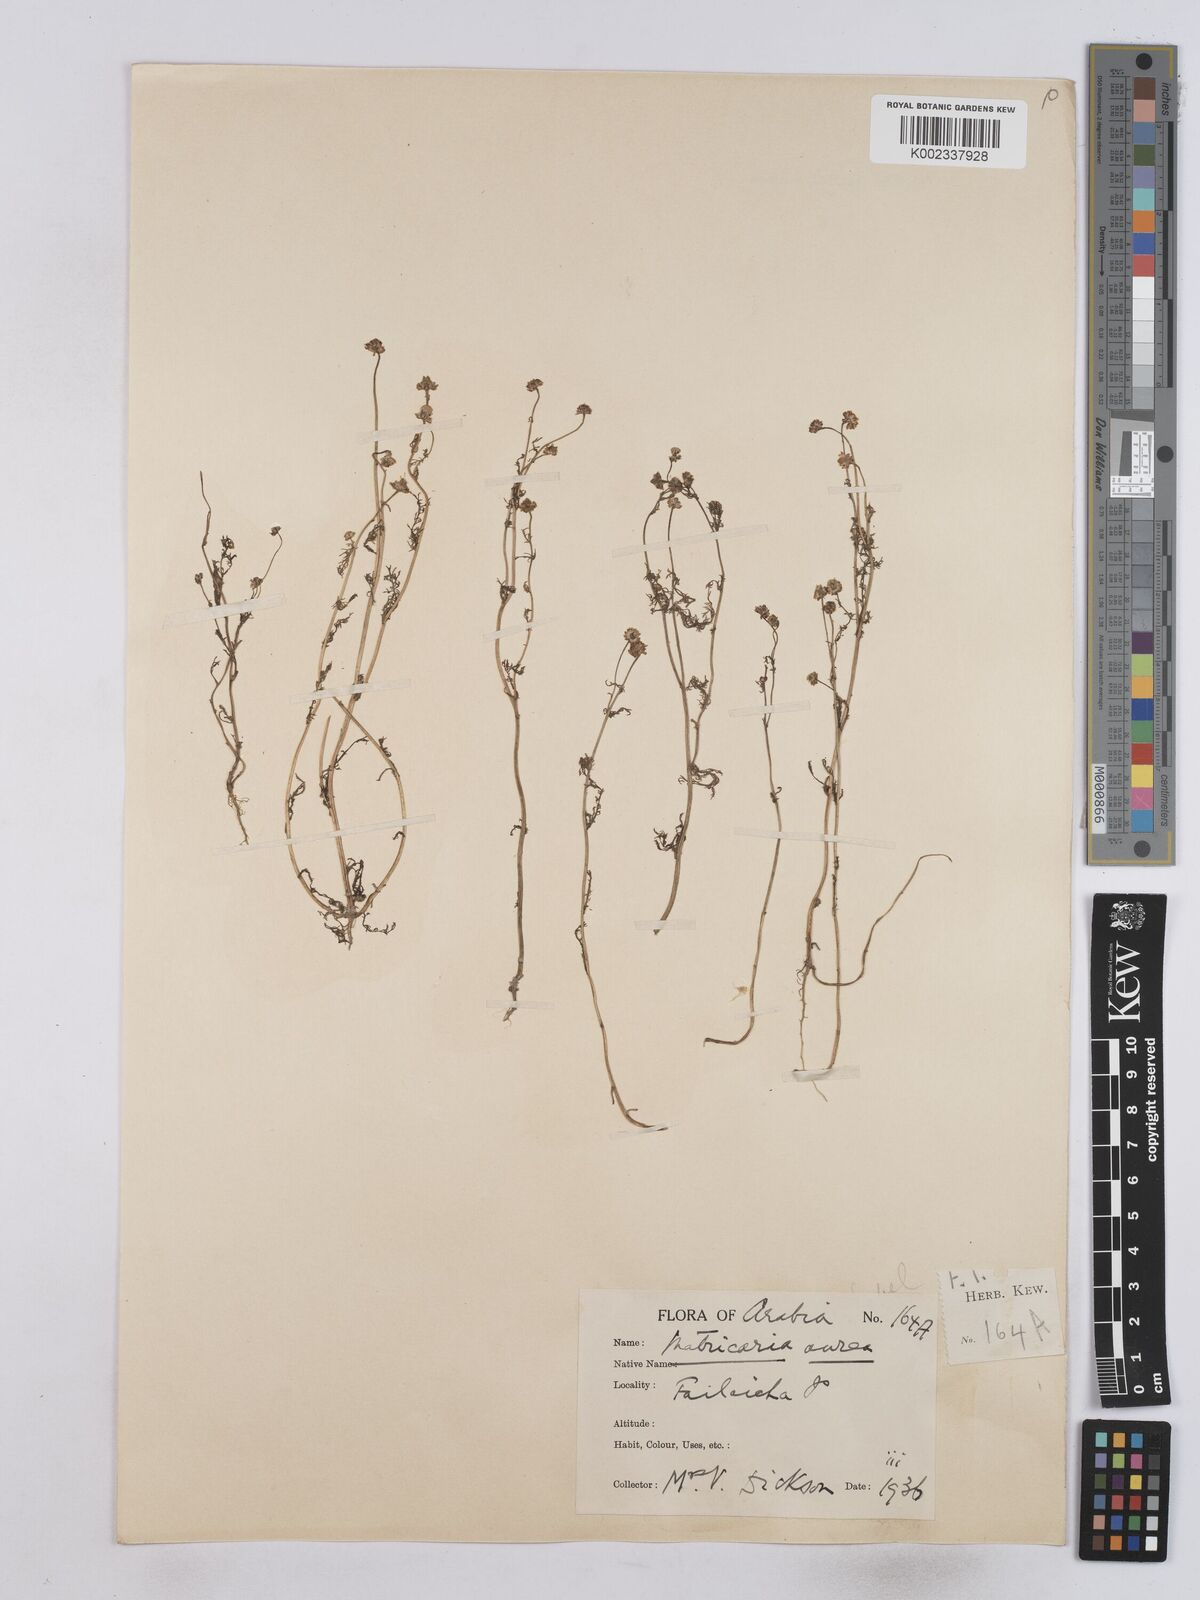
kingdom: Plantae
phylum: Tracheophyta
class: Magnoliopsida
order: Asterales
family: Asteraceae
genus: Matricaria
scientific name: Matricaria aurea
